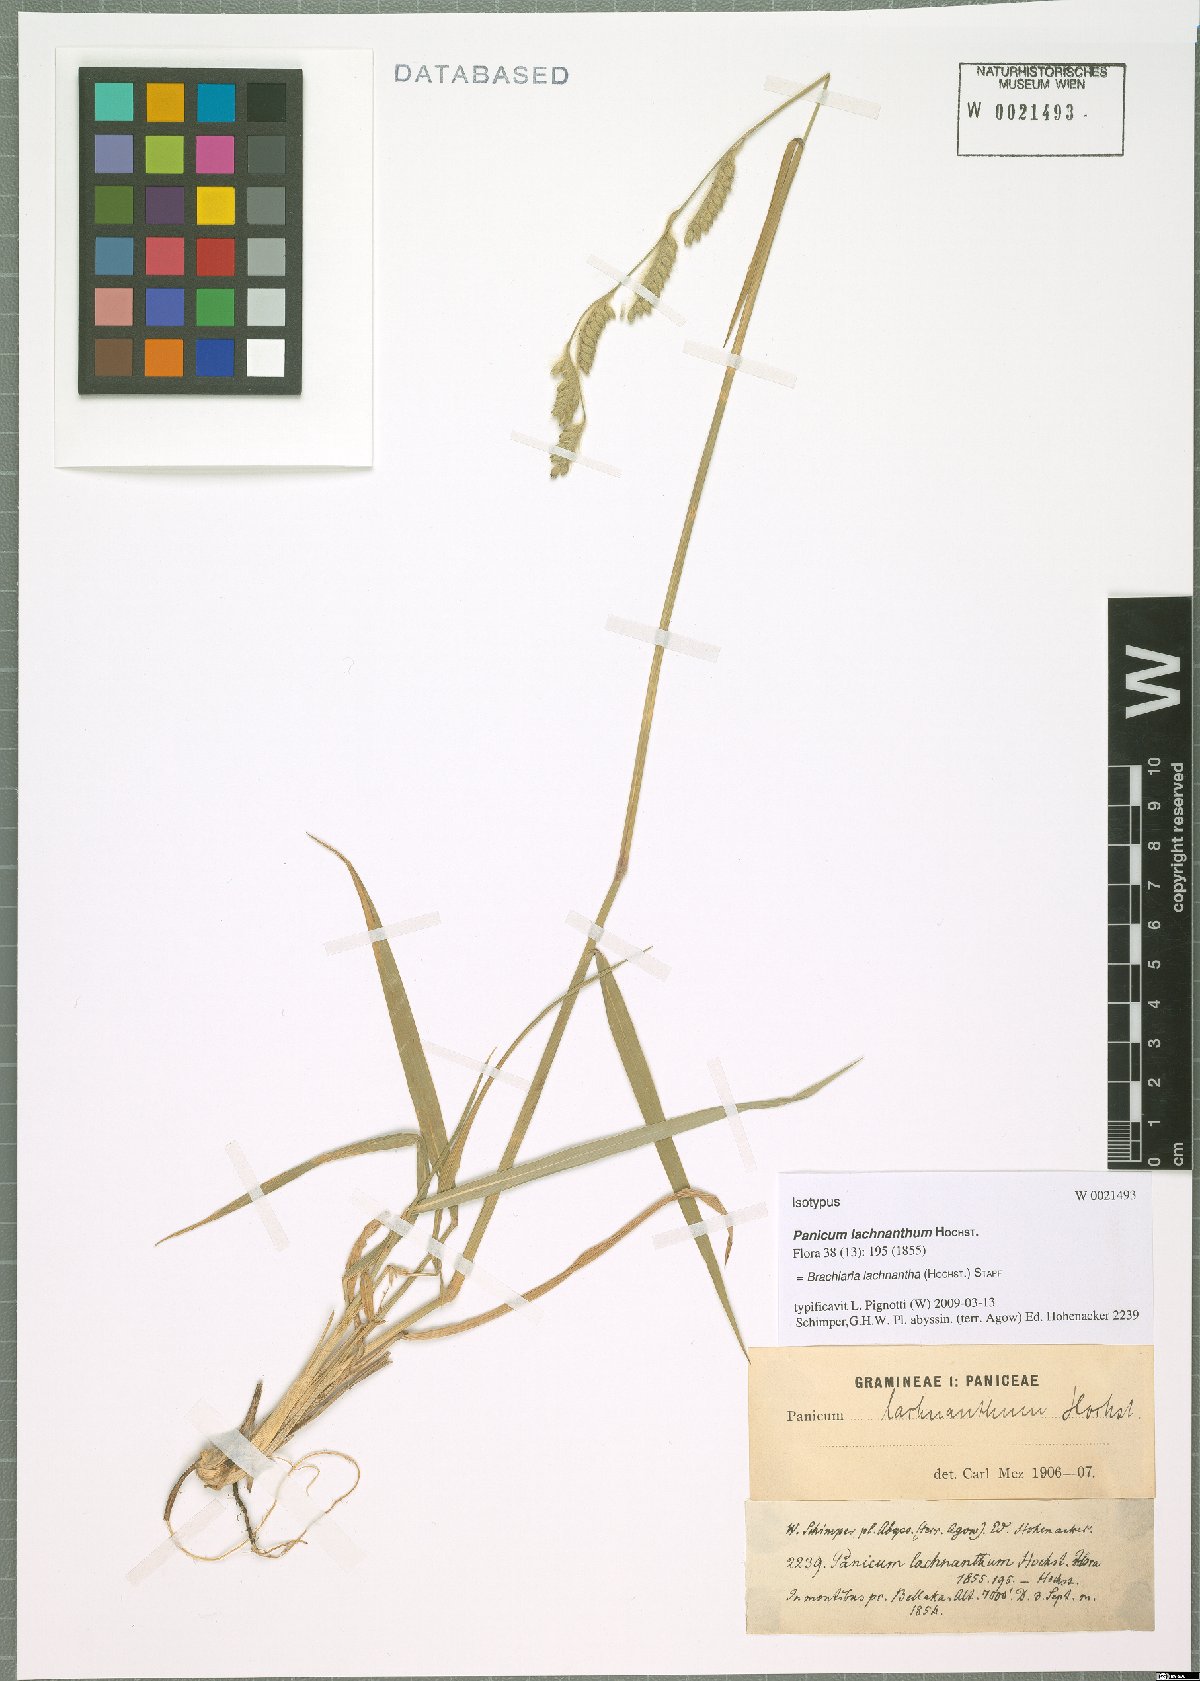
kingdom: Plantae
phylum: Tracheophyta
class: Liliopsida
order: Poales
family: Poaceae
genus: Urochloa
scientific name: Urochloa lachnantha
